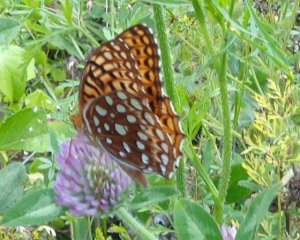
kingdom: Animalia
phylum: Arthropoda
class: Insecta
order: Lepidoptera
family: Nymphalidae
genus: Speyeria
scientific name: Speyeria aphrodite
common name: Aphrodite Fritillary
